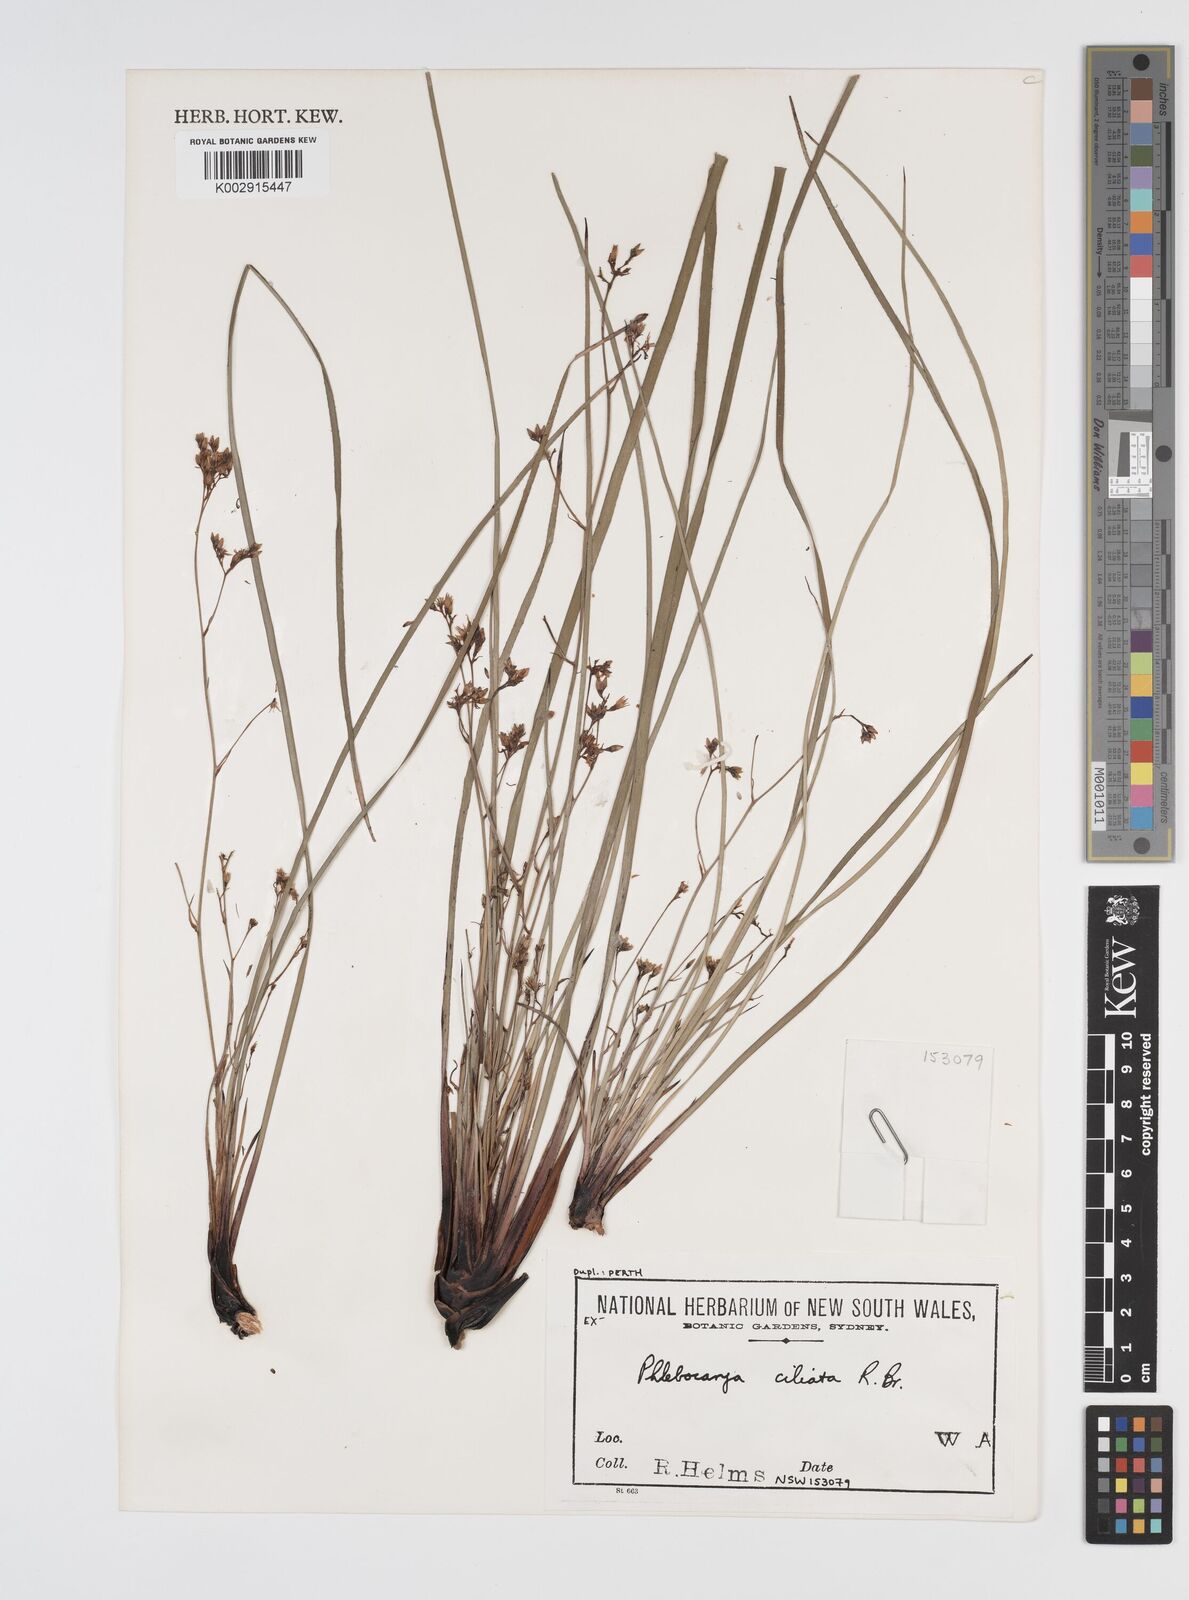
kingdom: Plantae
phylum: Tracheophyta
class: Liliopsida
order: Commelinales
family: Haemodoraceae
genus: Phlebocarya
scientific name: Phlebocarya ciliata
